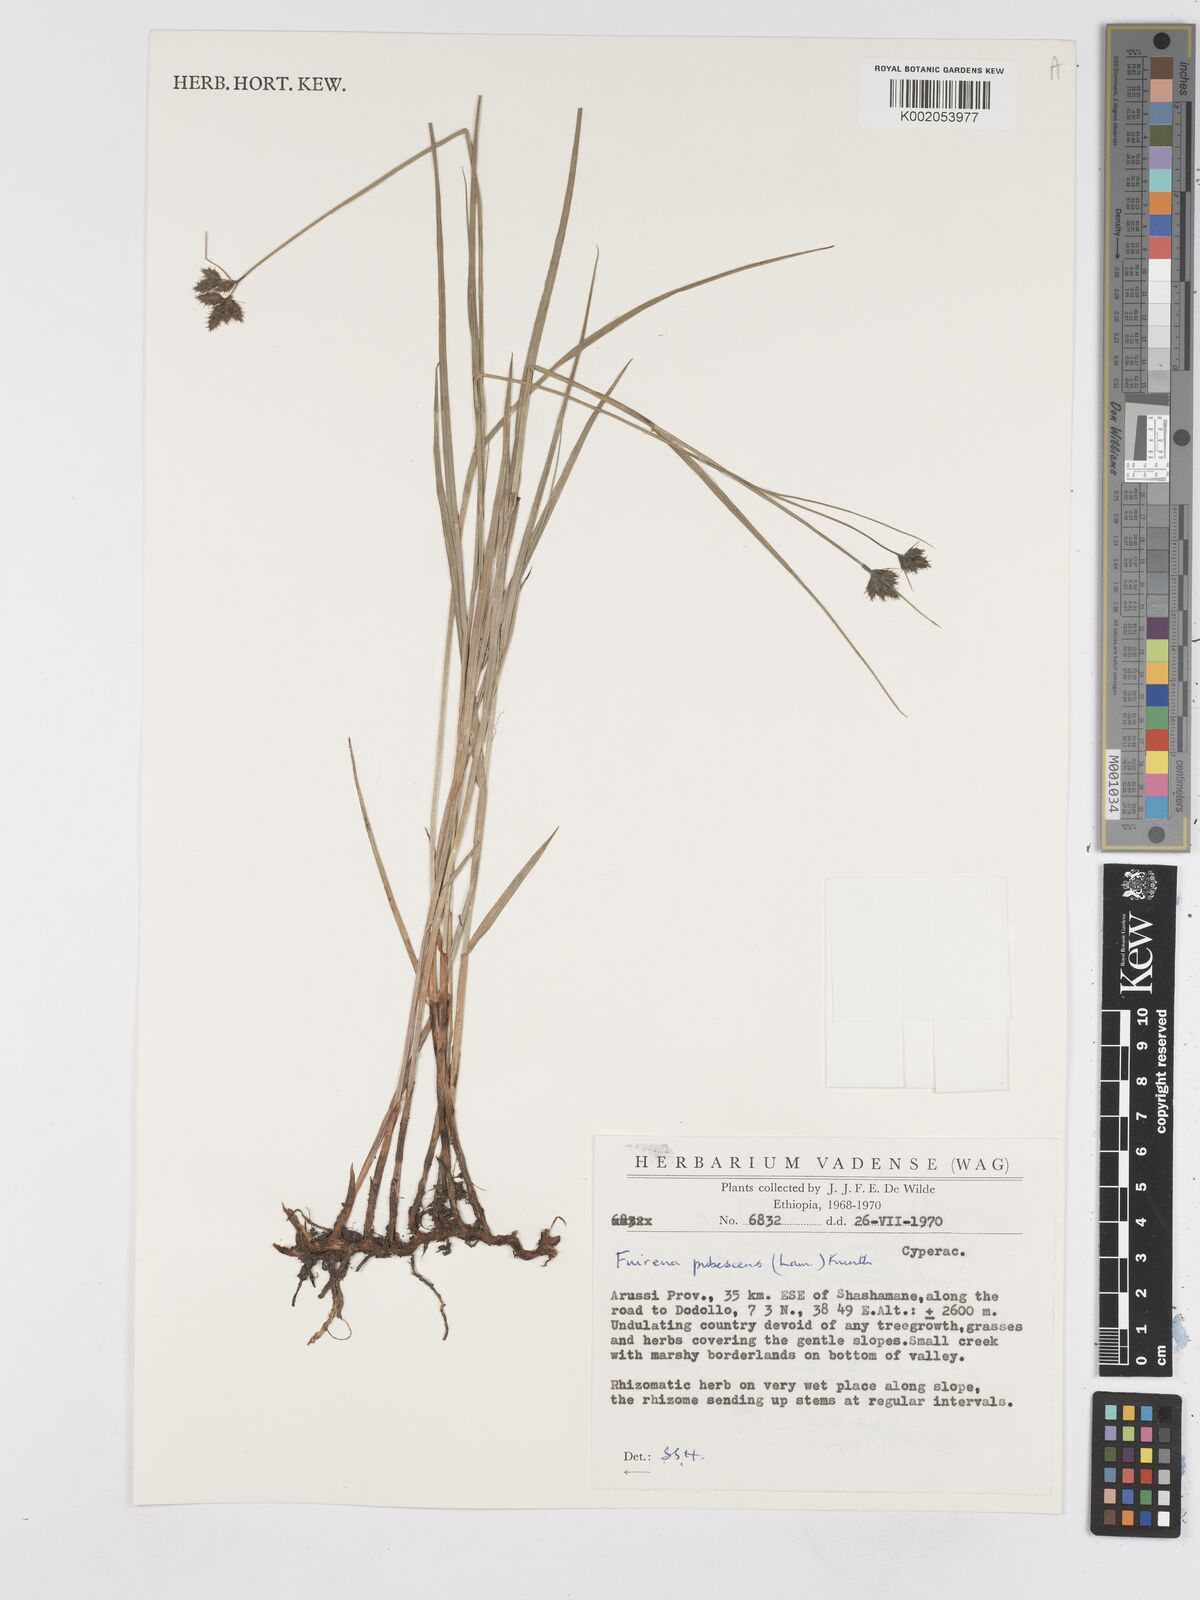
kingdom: Plantae
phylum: Tracheophyta
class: Liliopsida
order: Poales
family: Cyperaceae
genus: Fuirena
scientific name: Fuirena pachyrrhiza
